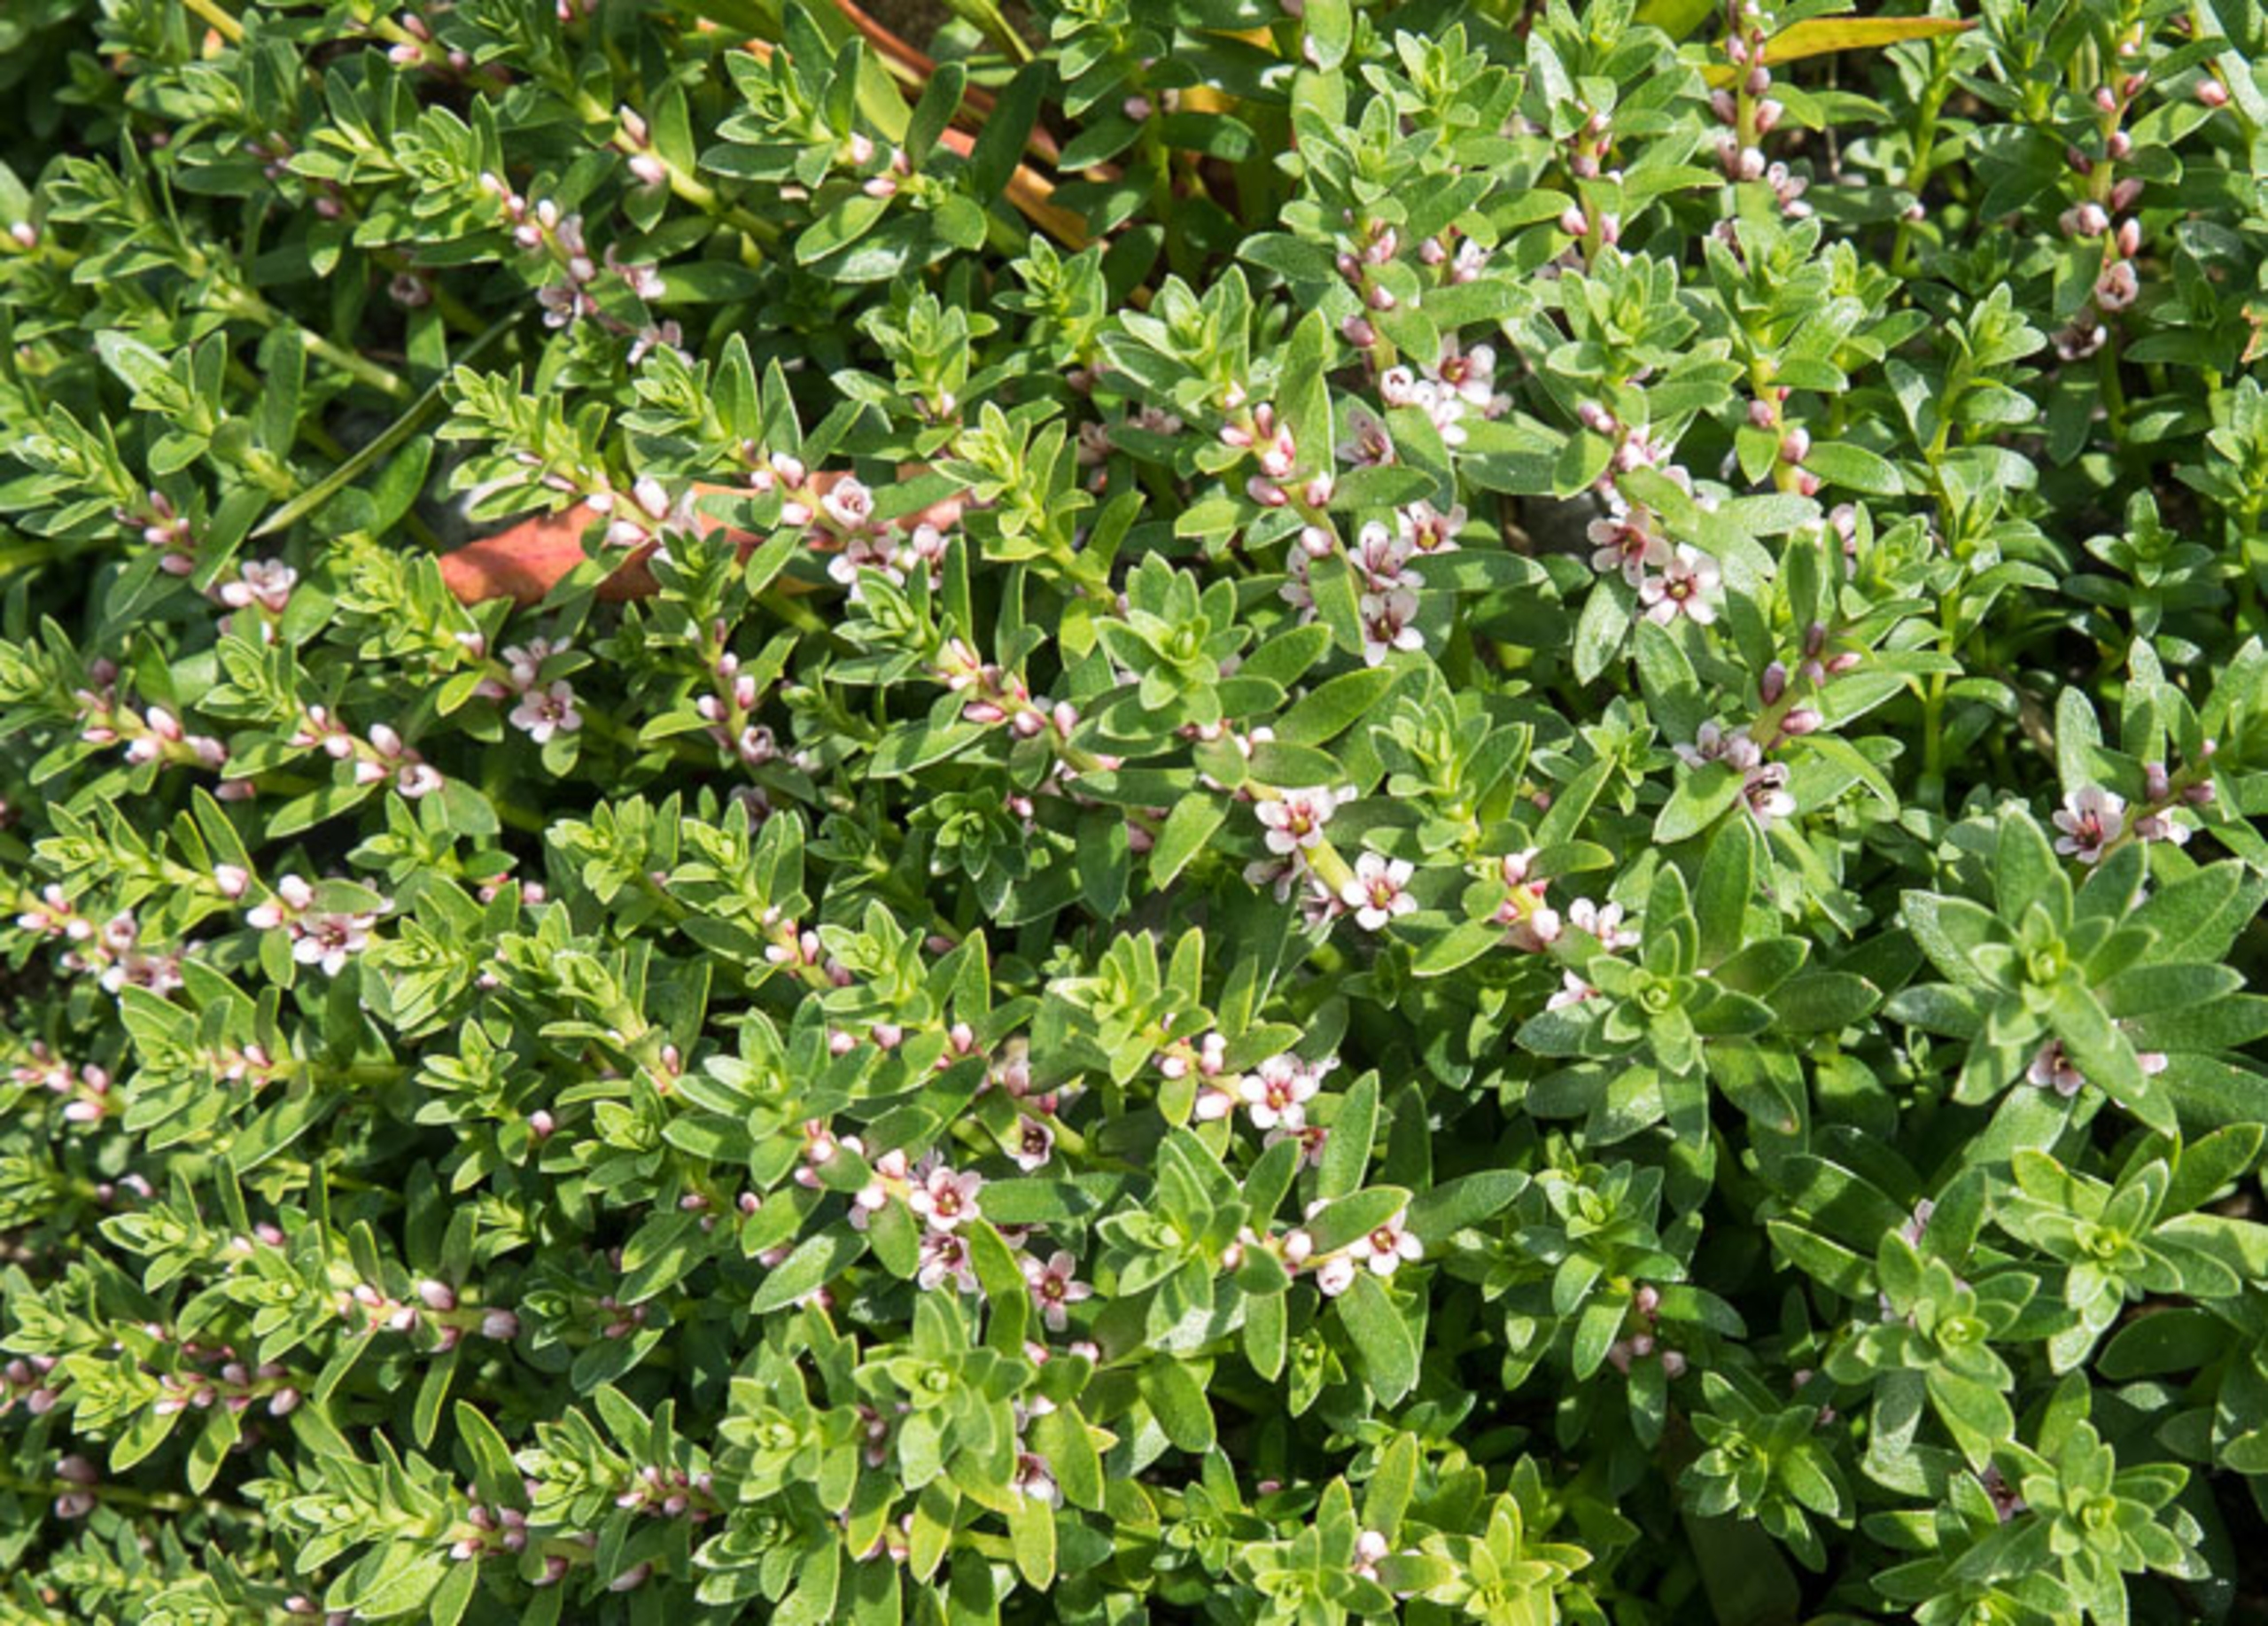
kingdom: Plantae
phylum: Tracheophyta
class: Magnoliopsida
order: Ericales
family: Primulaceae
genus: Lysimachia
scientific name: Lysimachia maritima
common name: Sandkryb
